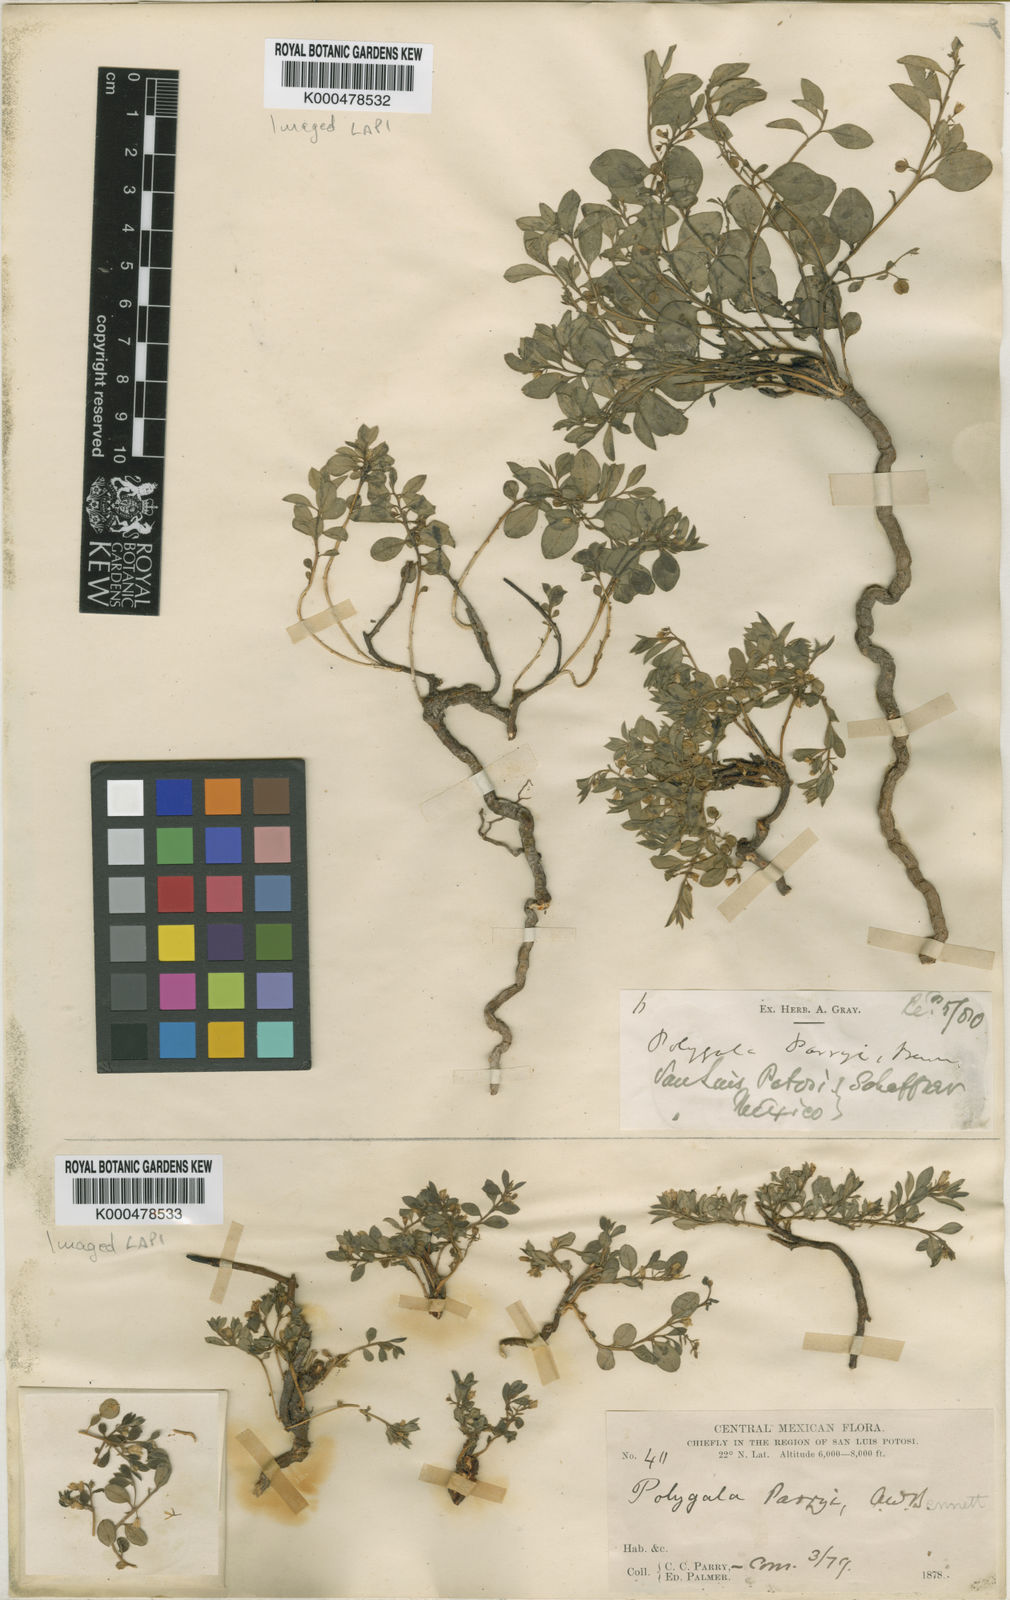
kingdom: Plantae
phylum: Tracheophyta
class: Magnoliopsida
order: Fabales
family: Polygalaceae
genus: Rhinotropis
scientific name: Rhinotropis parryi
